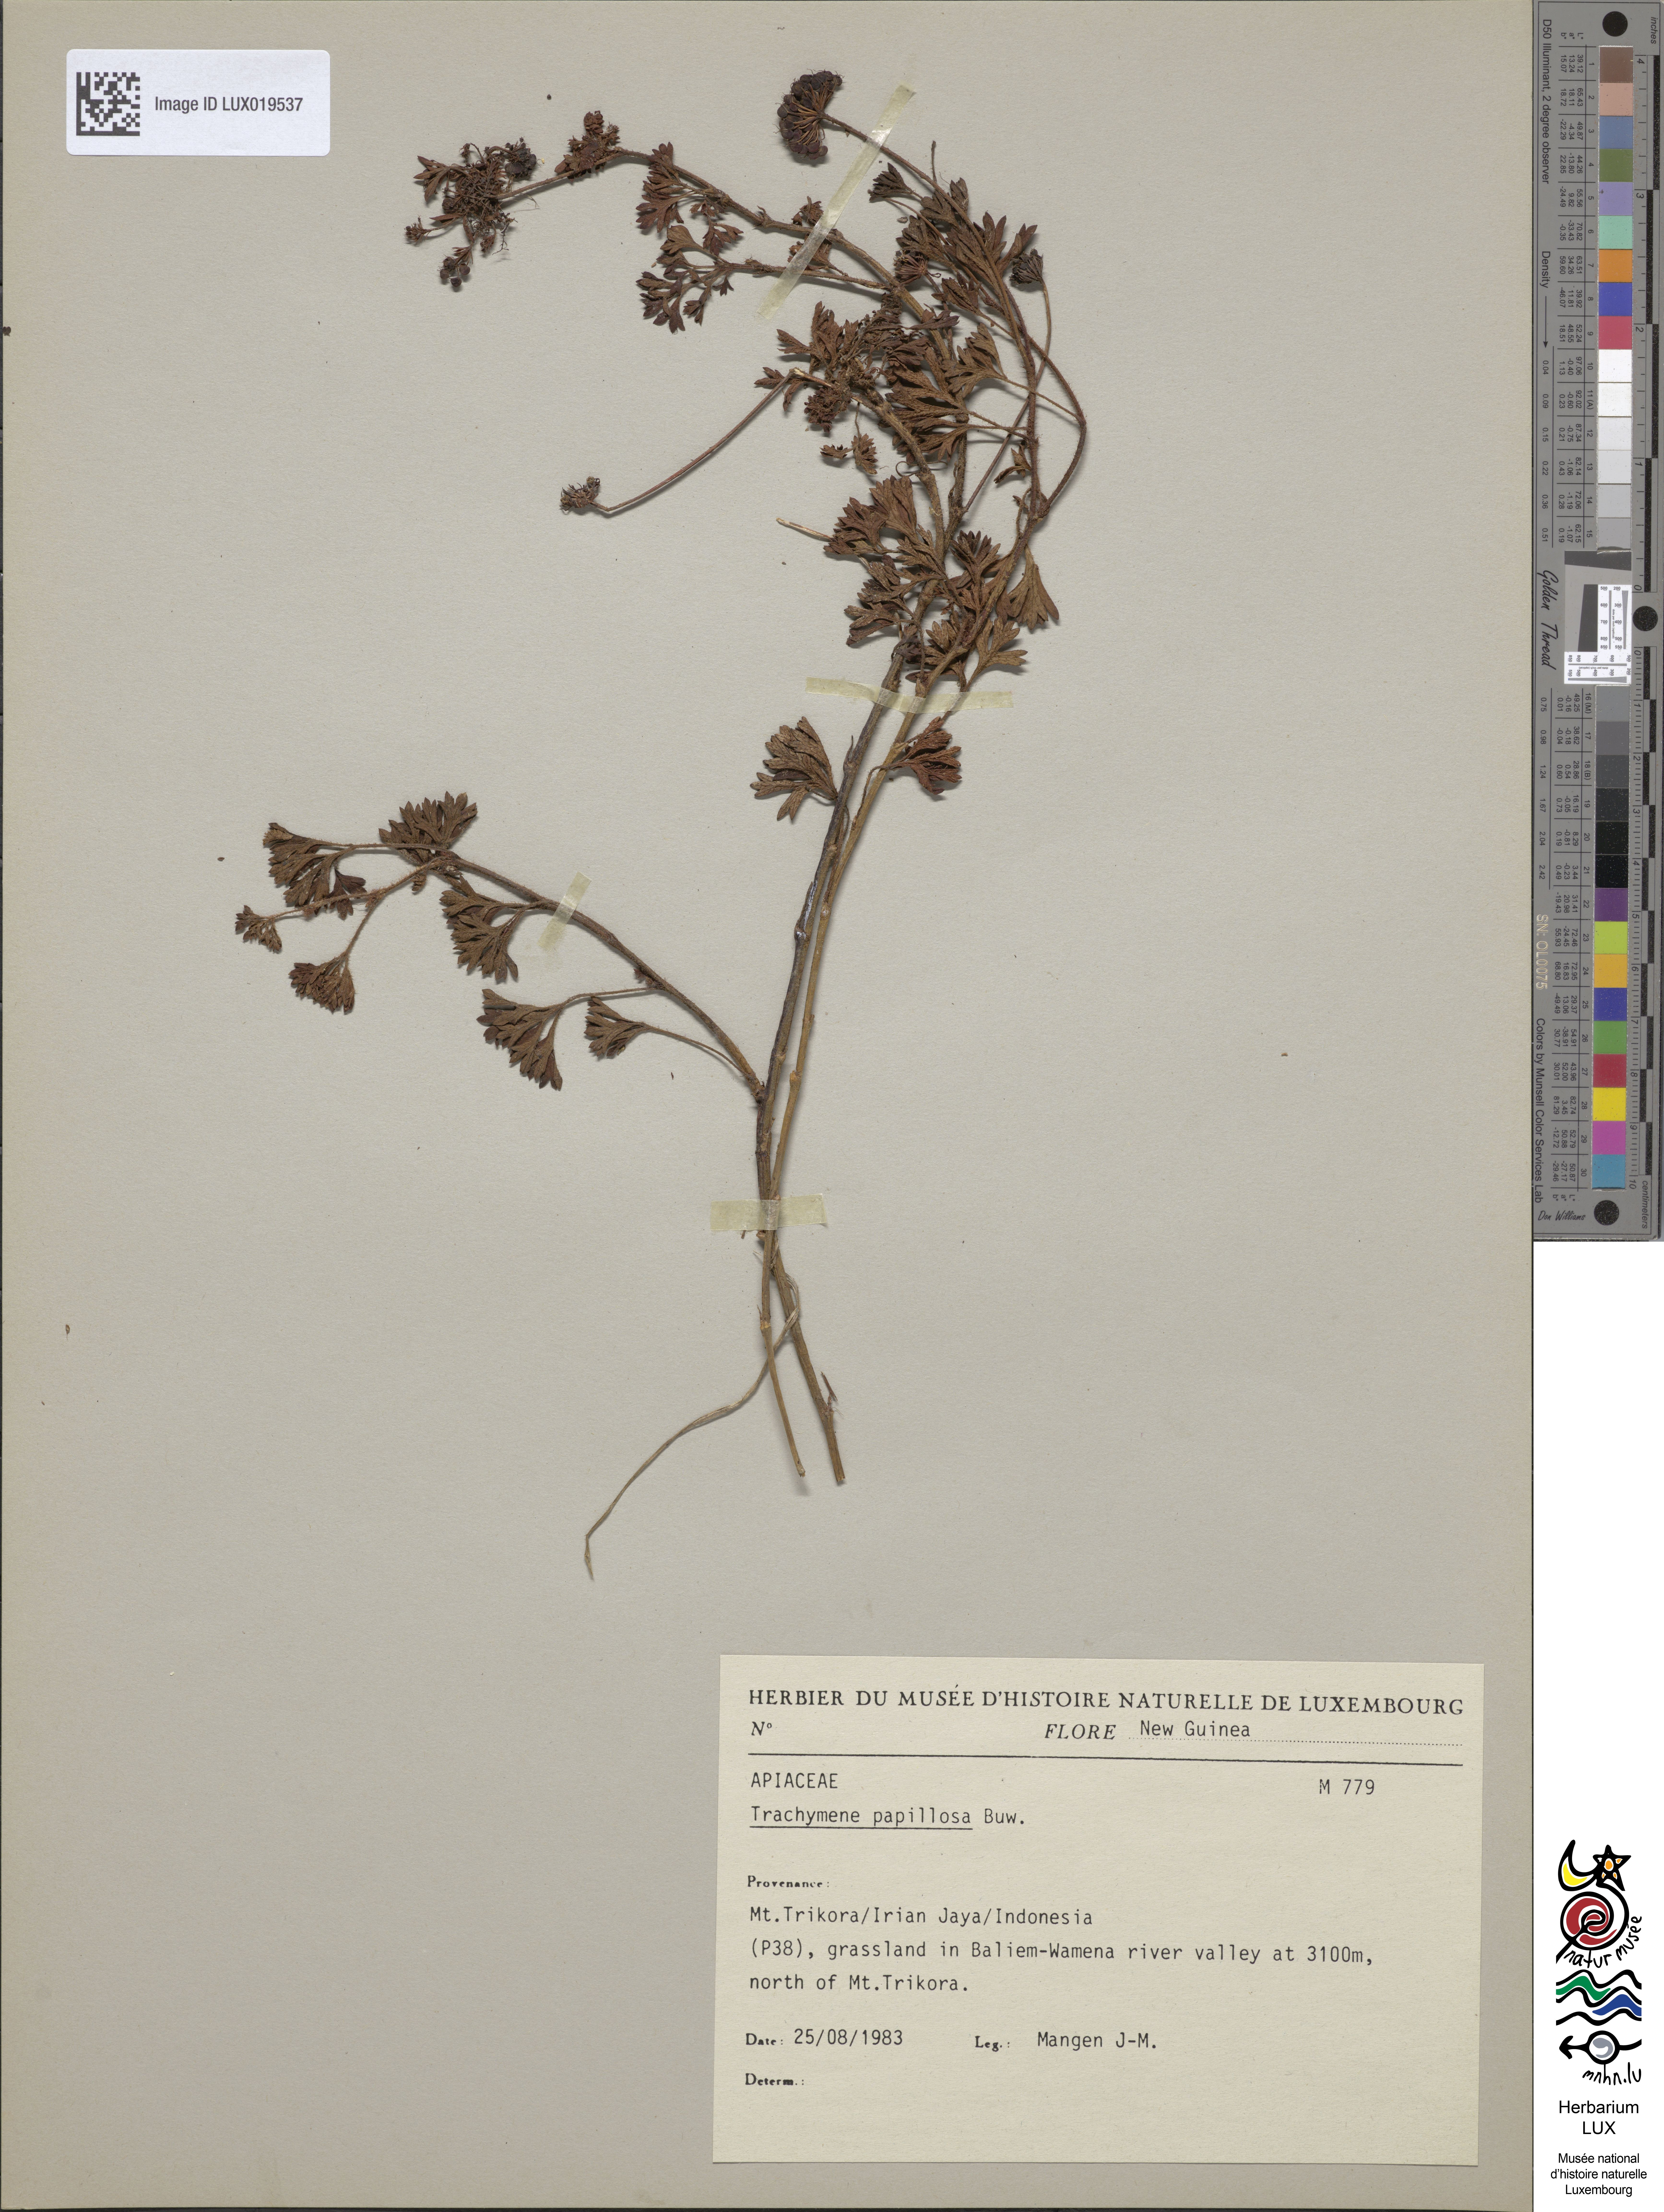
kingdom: Plantae
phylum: Tracheophyta
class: Magnoliopsida
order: Apiales
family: Araliaceae
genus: Trachymene
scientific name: Trachymene papillosa
